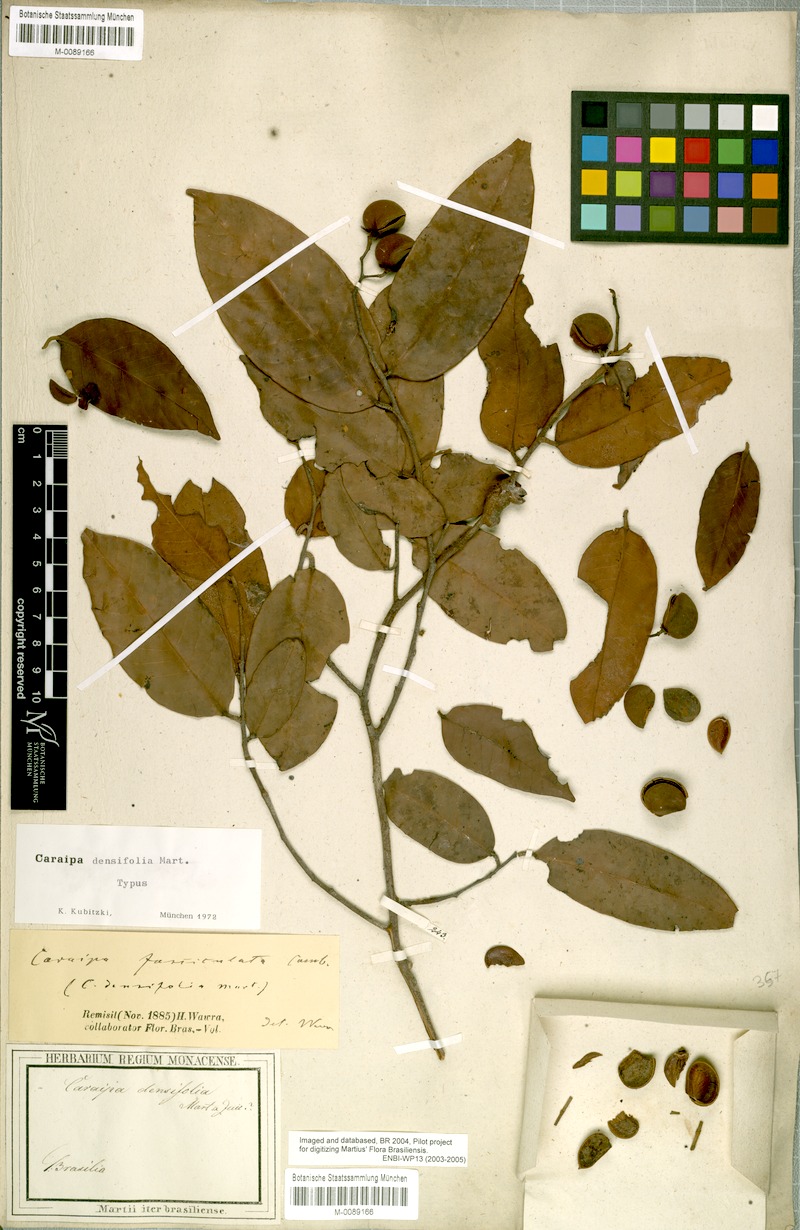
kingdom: Plantae
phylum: Tracheophyta
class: Magnoliopsida
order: Malpighiales
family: Calophyllaceae
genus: Caraipa
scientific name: Caraipa densifolia
